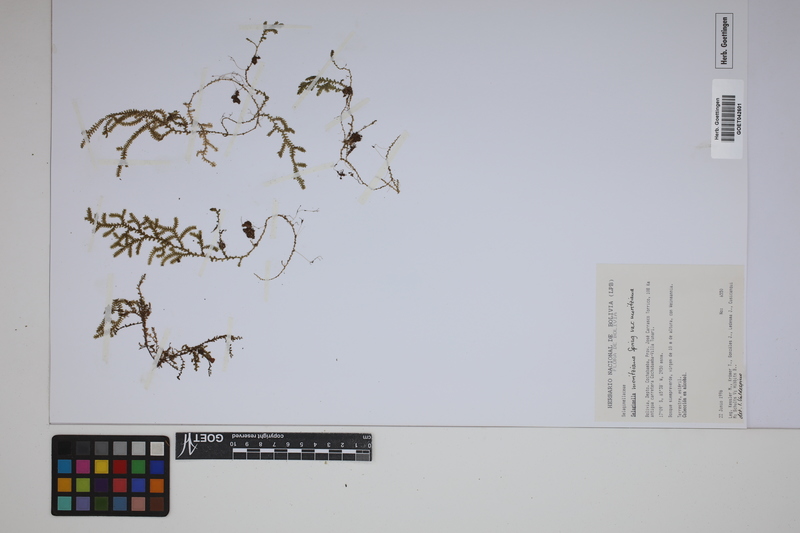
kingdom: Plantae
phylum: Tracheophyta
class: Lycopodiopsida
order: Selaginellales
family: Selaginellaceae
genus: Selaginella
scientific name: Selaginella moritziana
